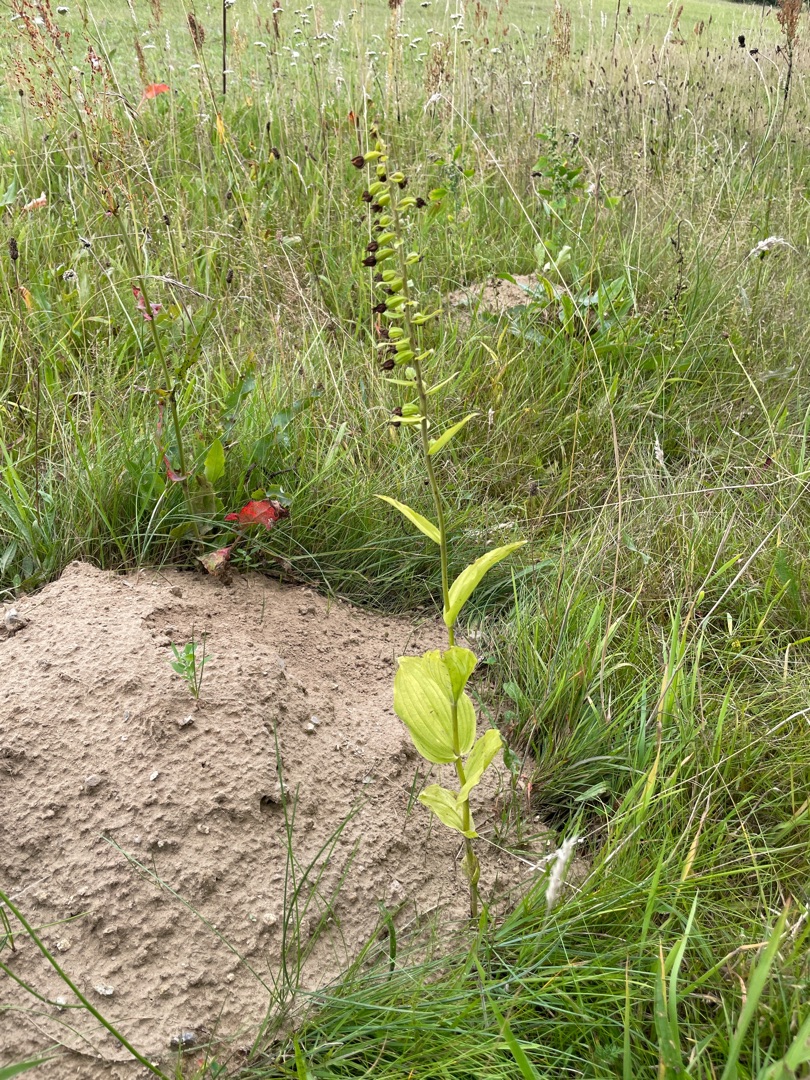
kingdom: Plantae
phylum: Tracheophyta
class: Liliopsida
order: Asparagales
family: Orchidaceae
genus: Epipactis
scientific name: Epipactis helleborine
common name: Skov-hullæbe
